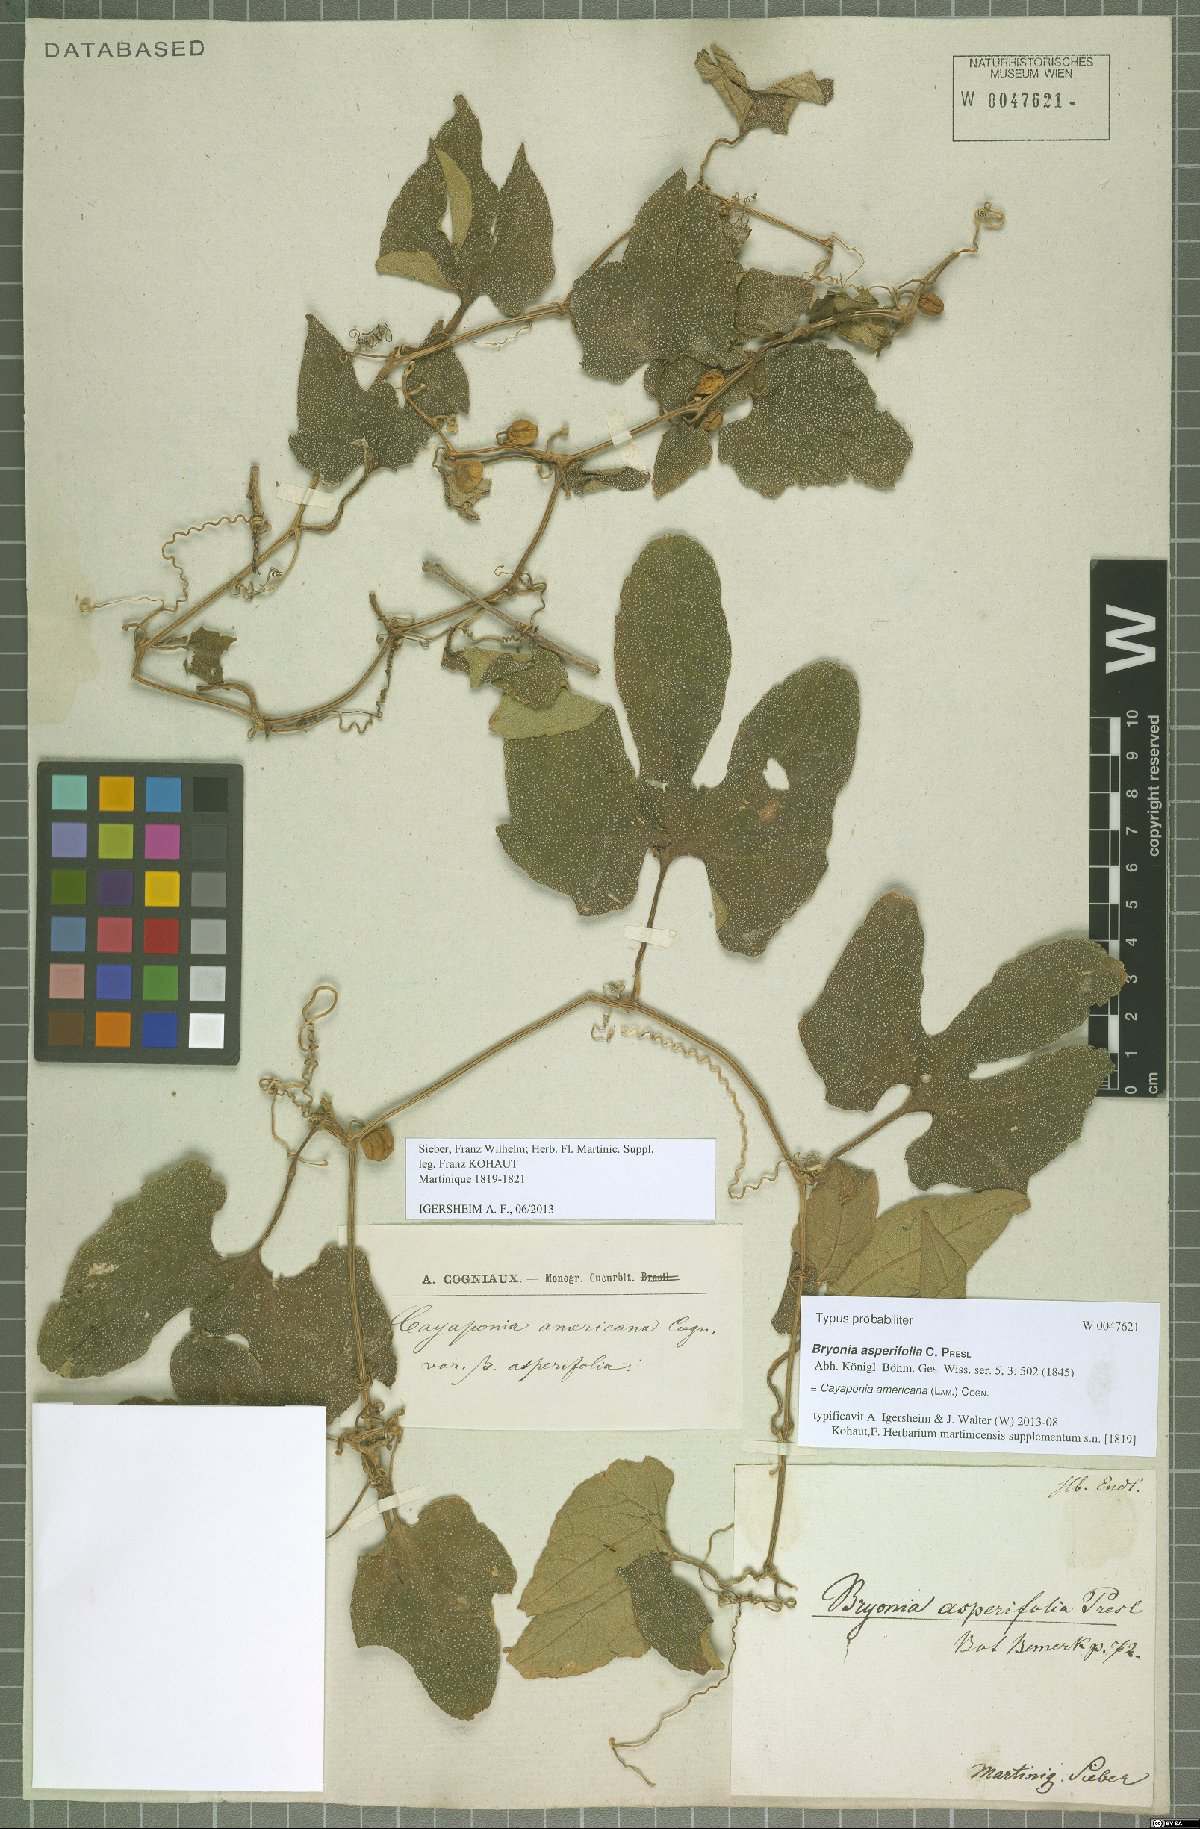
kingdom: Plantae
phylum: Tracheophyta
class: Magnoliopsida
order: Cucurbitales
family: Cucurbitaceae
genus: Cayaponia
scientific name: Cayaponia americana
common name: American melonleaf
